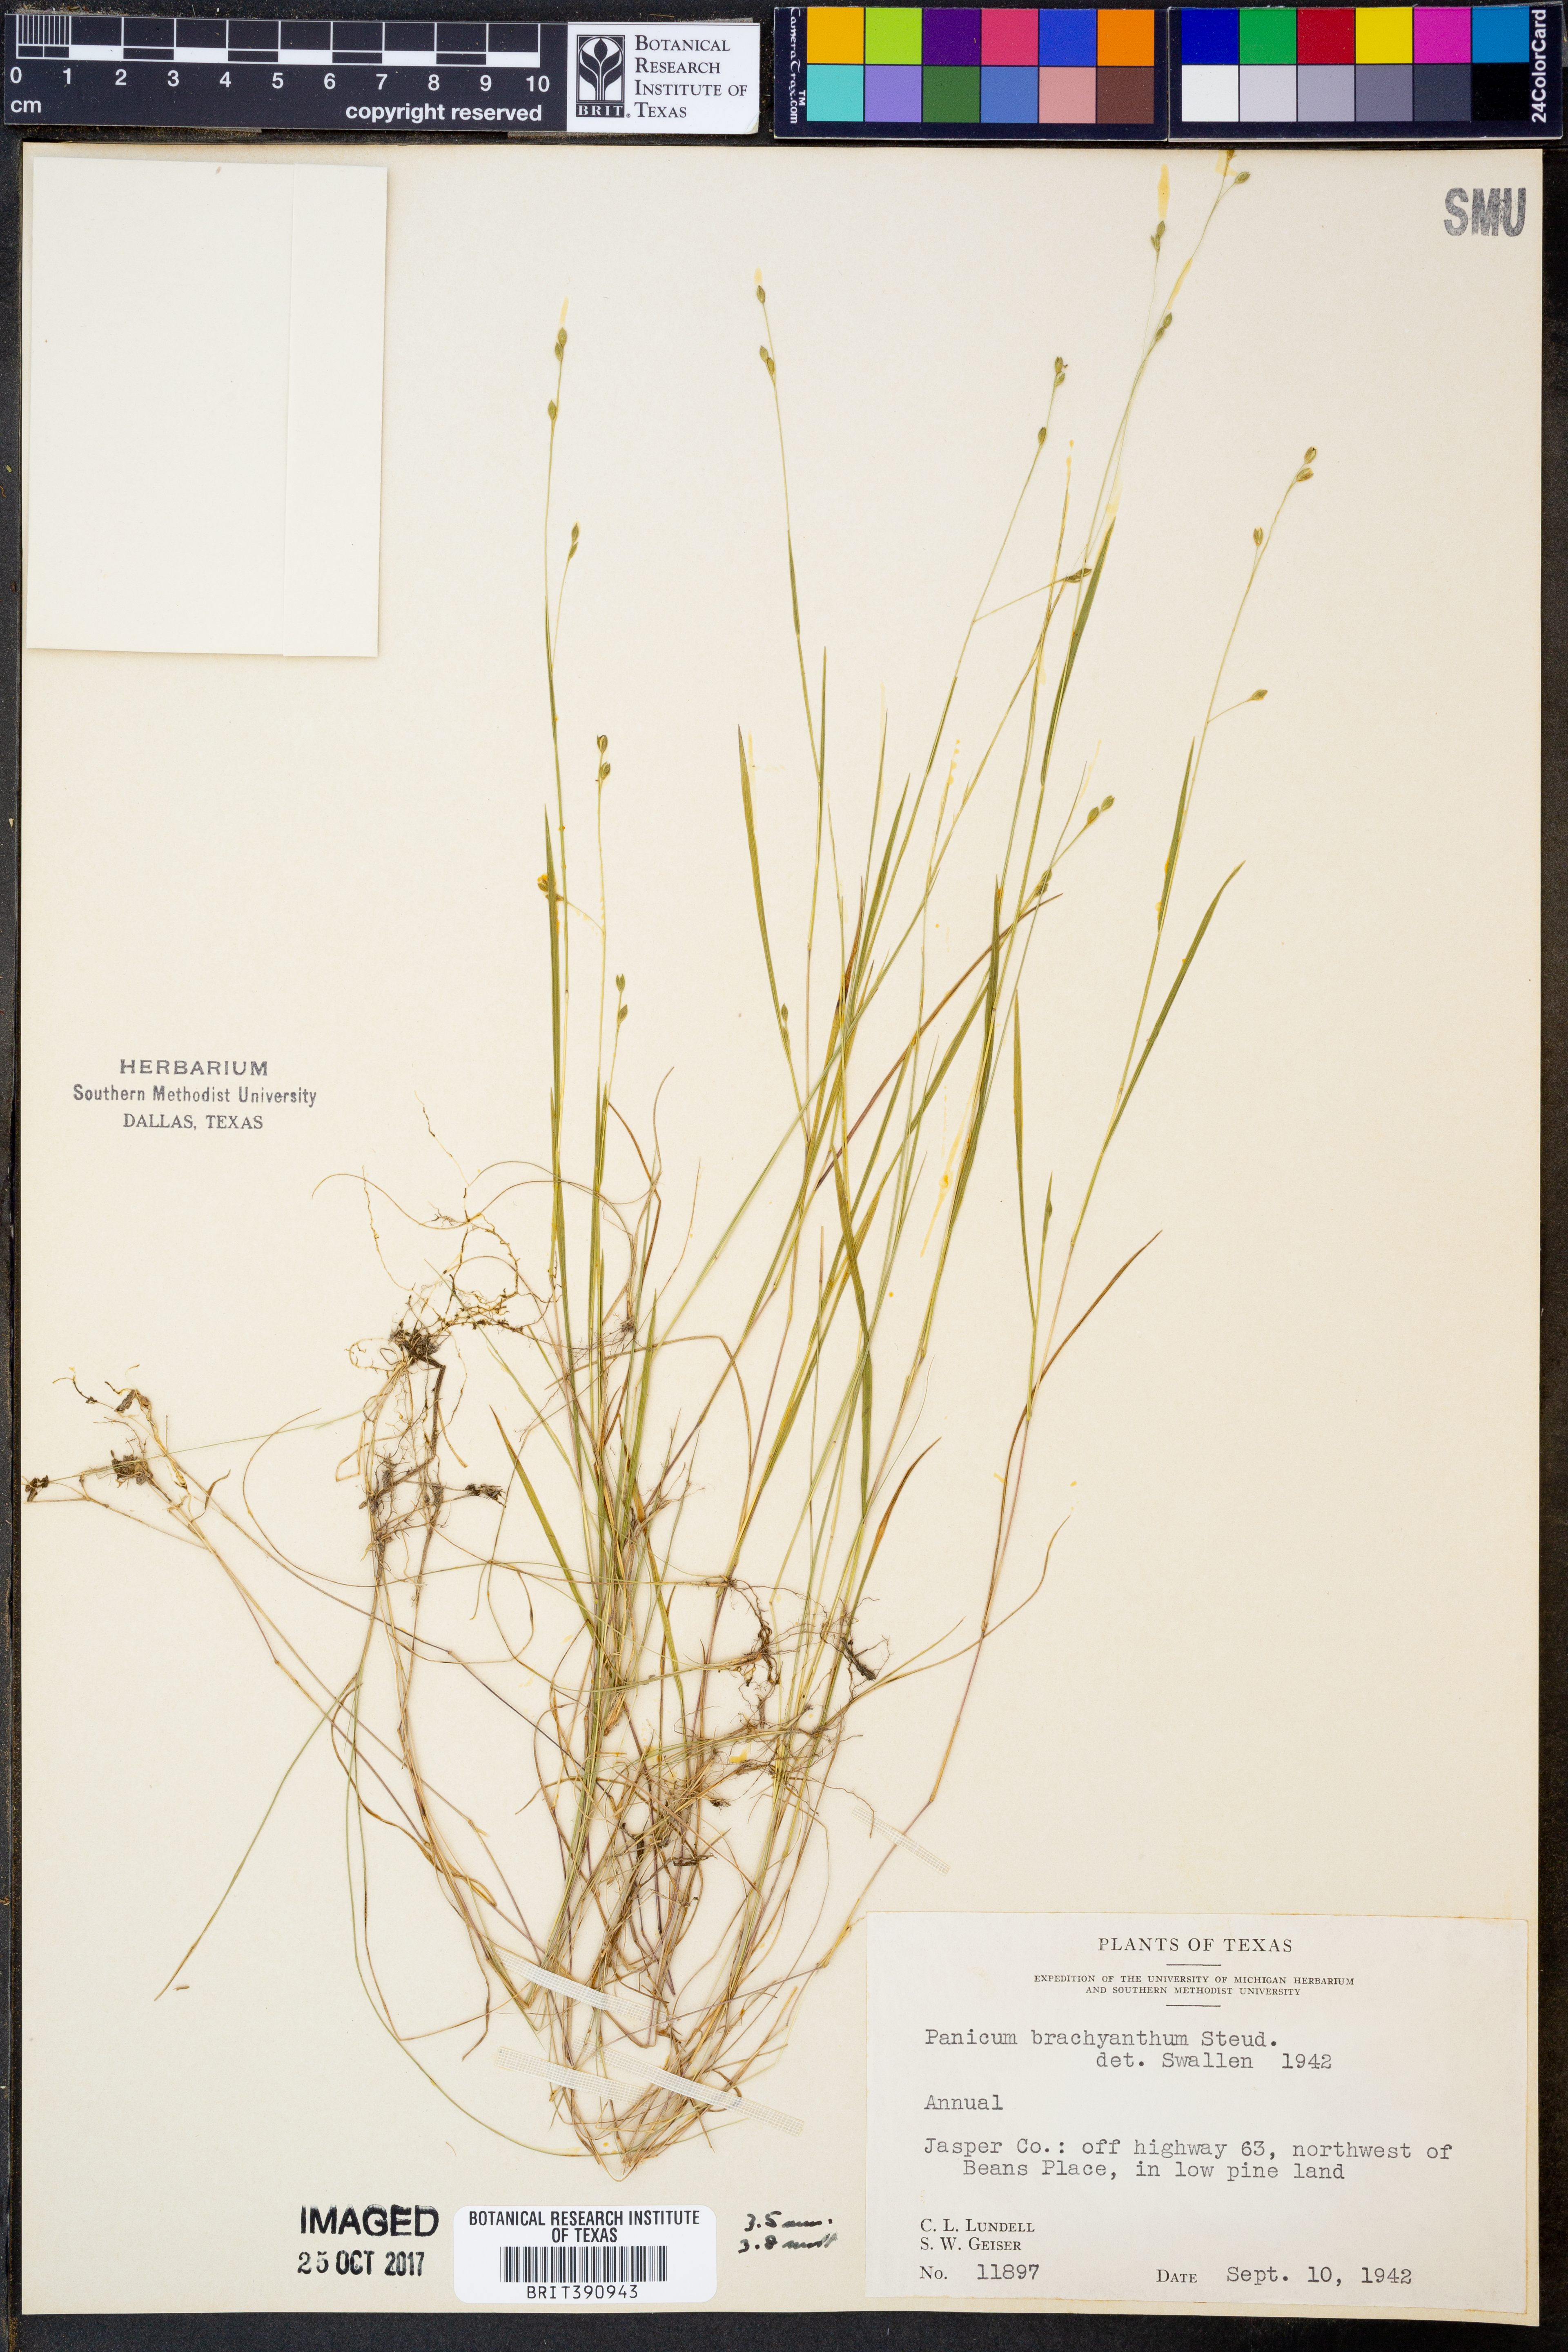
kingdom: Plantae
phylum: Tracheophyta
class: Liliopsida
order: Poales
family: Poaceae
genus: Kellochloa
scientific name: Kellochloa brachyantha
